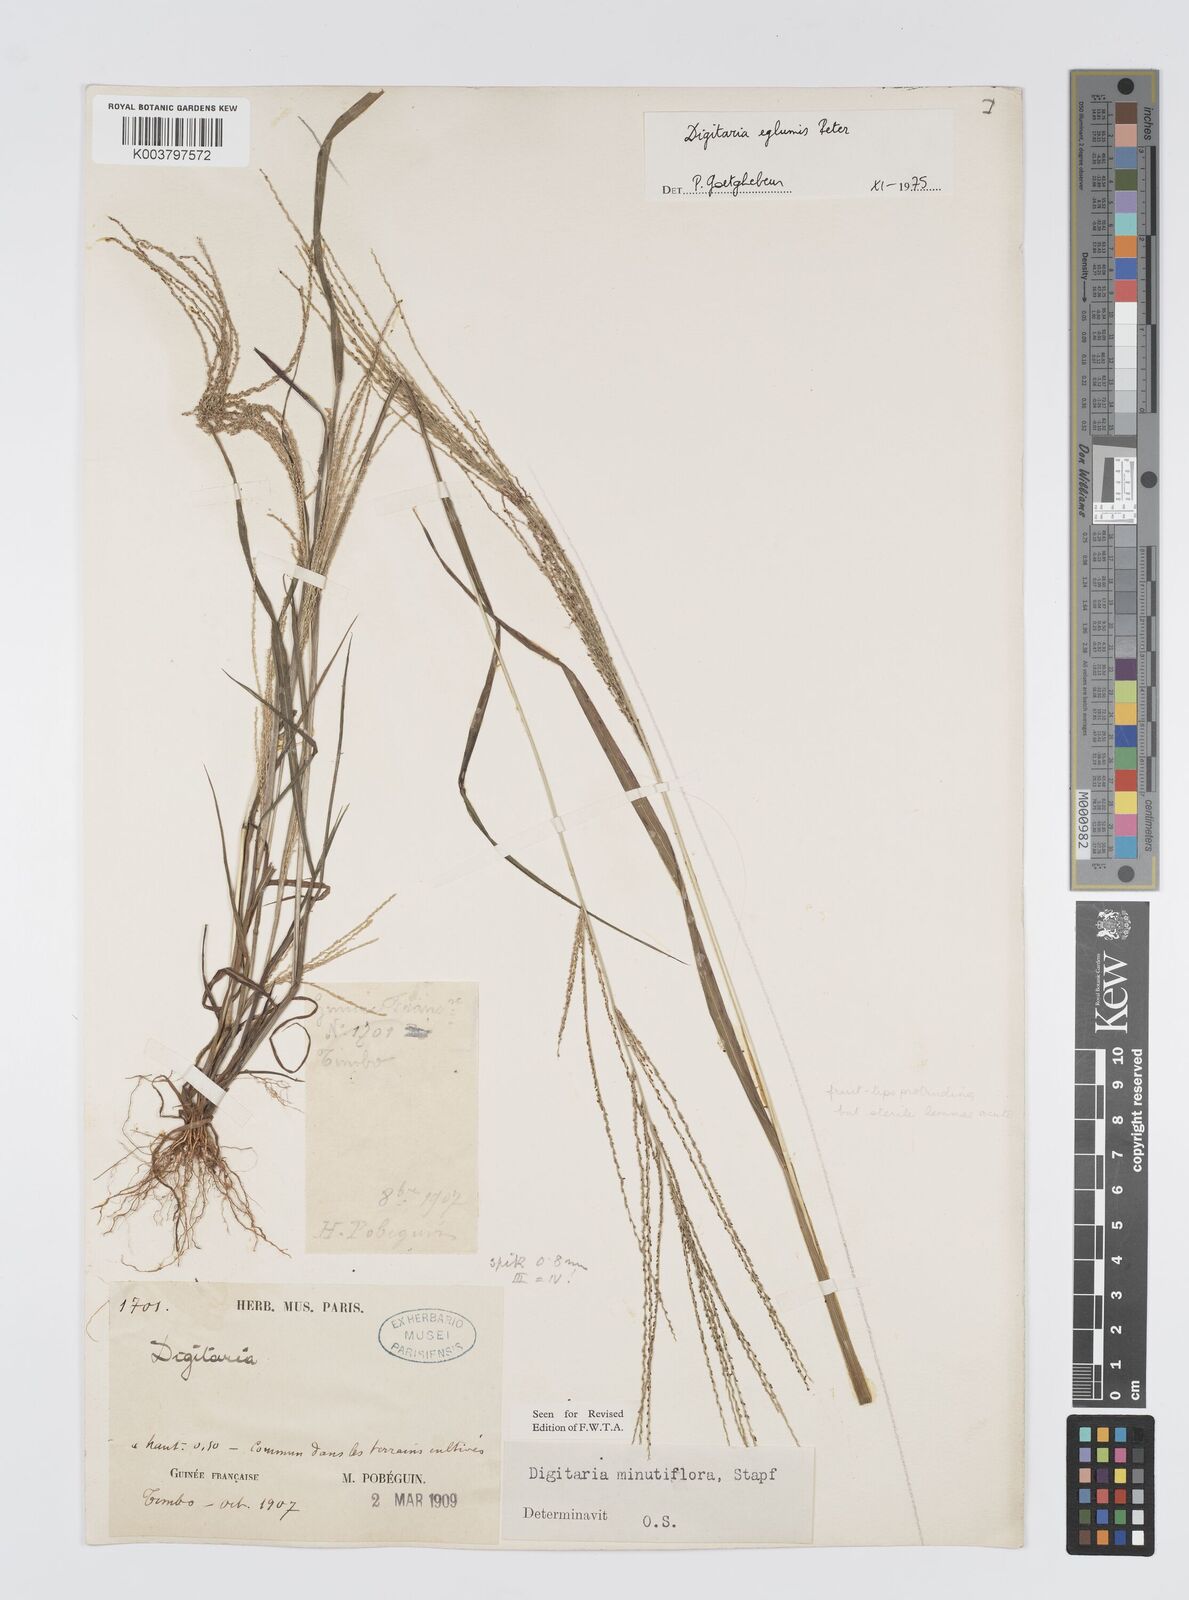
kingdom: Plantae
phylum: Tracheophyta
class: Liliopsida
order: Poales
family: Poaceae
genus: Digitaria
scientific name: Digitaria pseudodiagonalis
